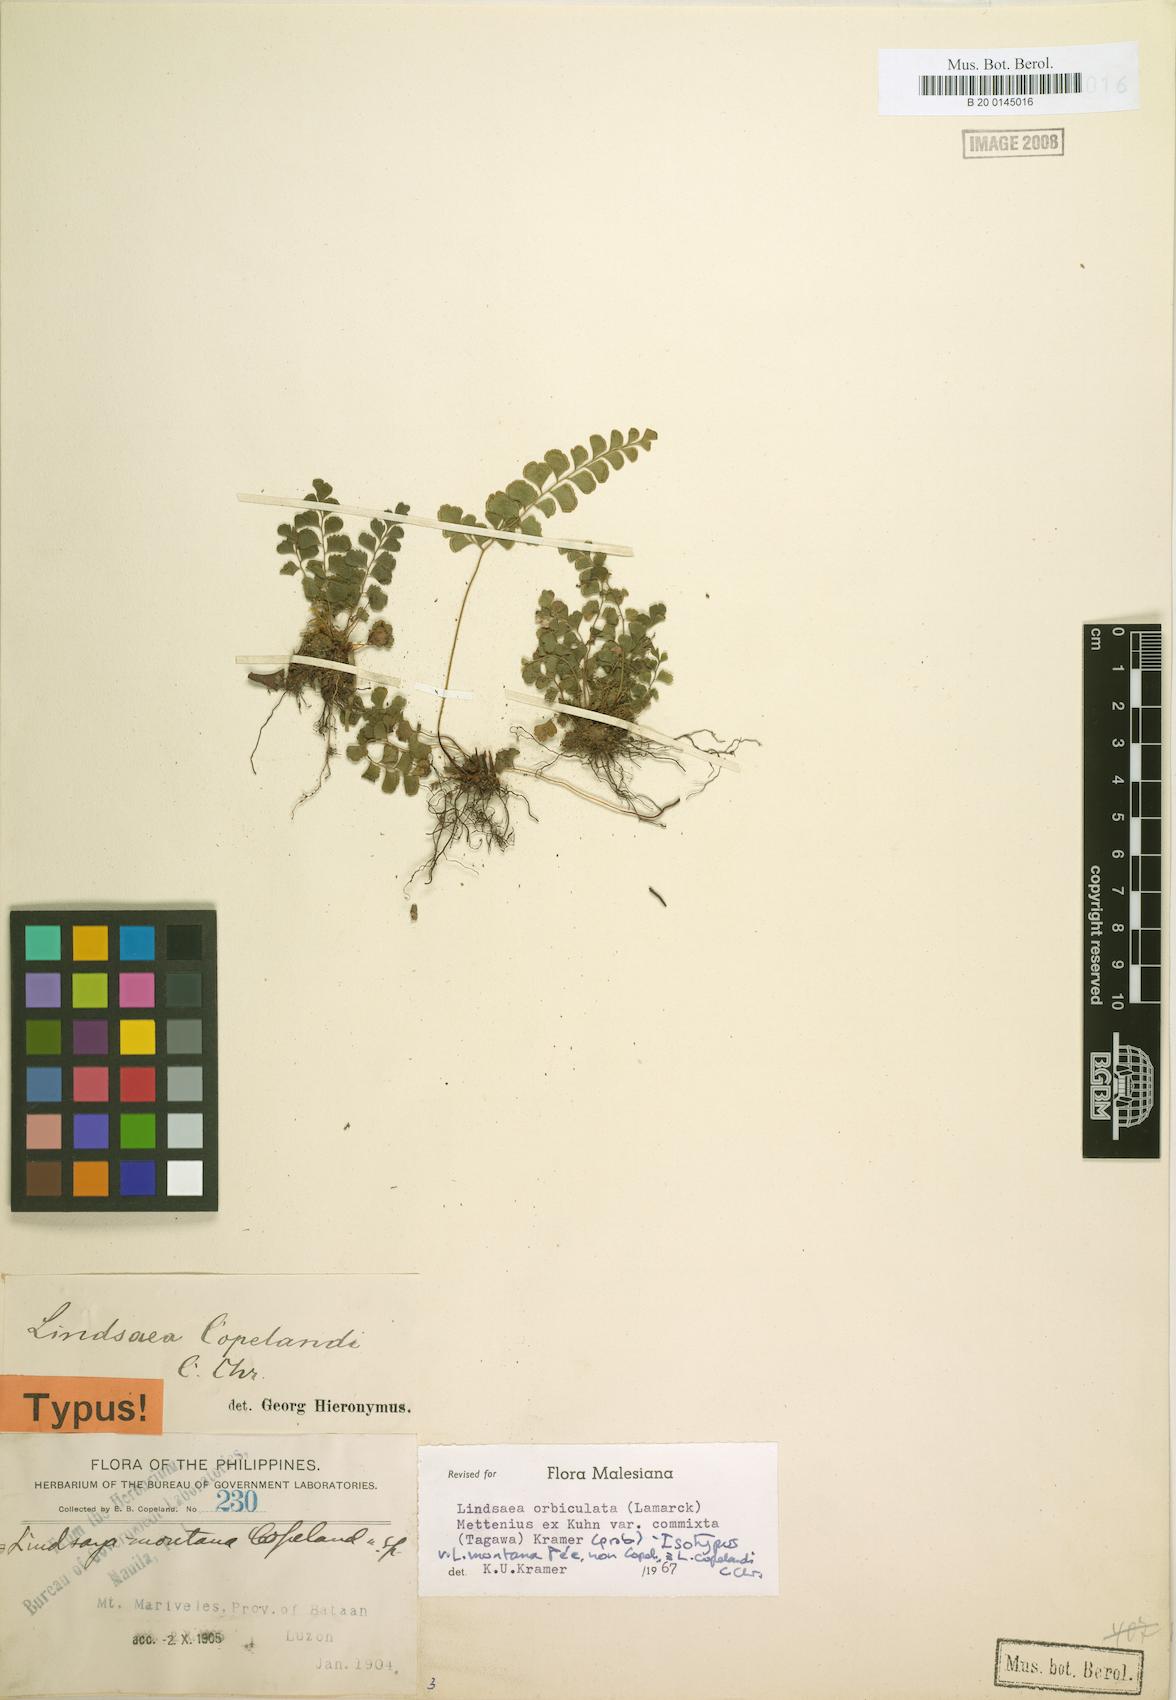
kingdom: Plantae
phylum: Tracheophyta
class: Polypodiopsida
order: Polypodiales
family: Lindsaeaceae
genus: Lindsaea
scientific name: Lindsaea bonii
